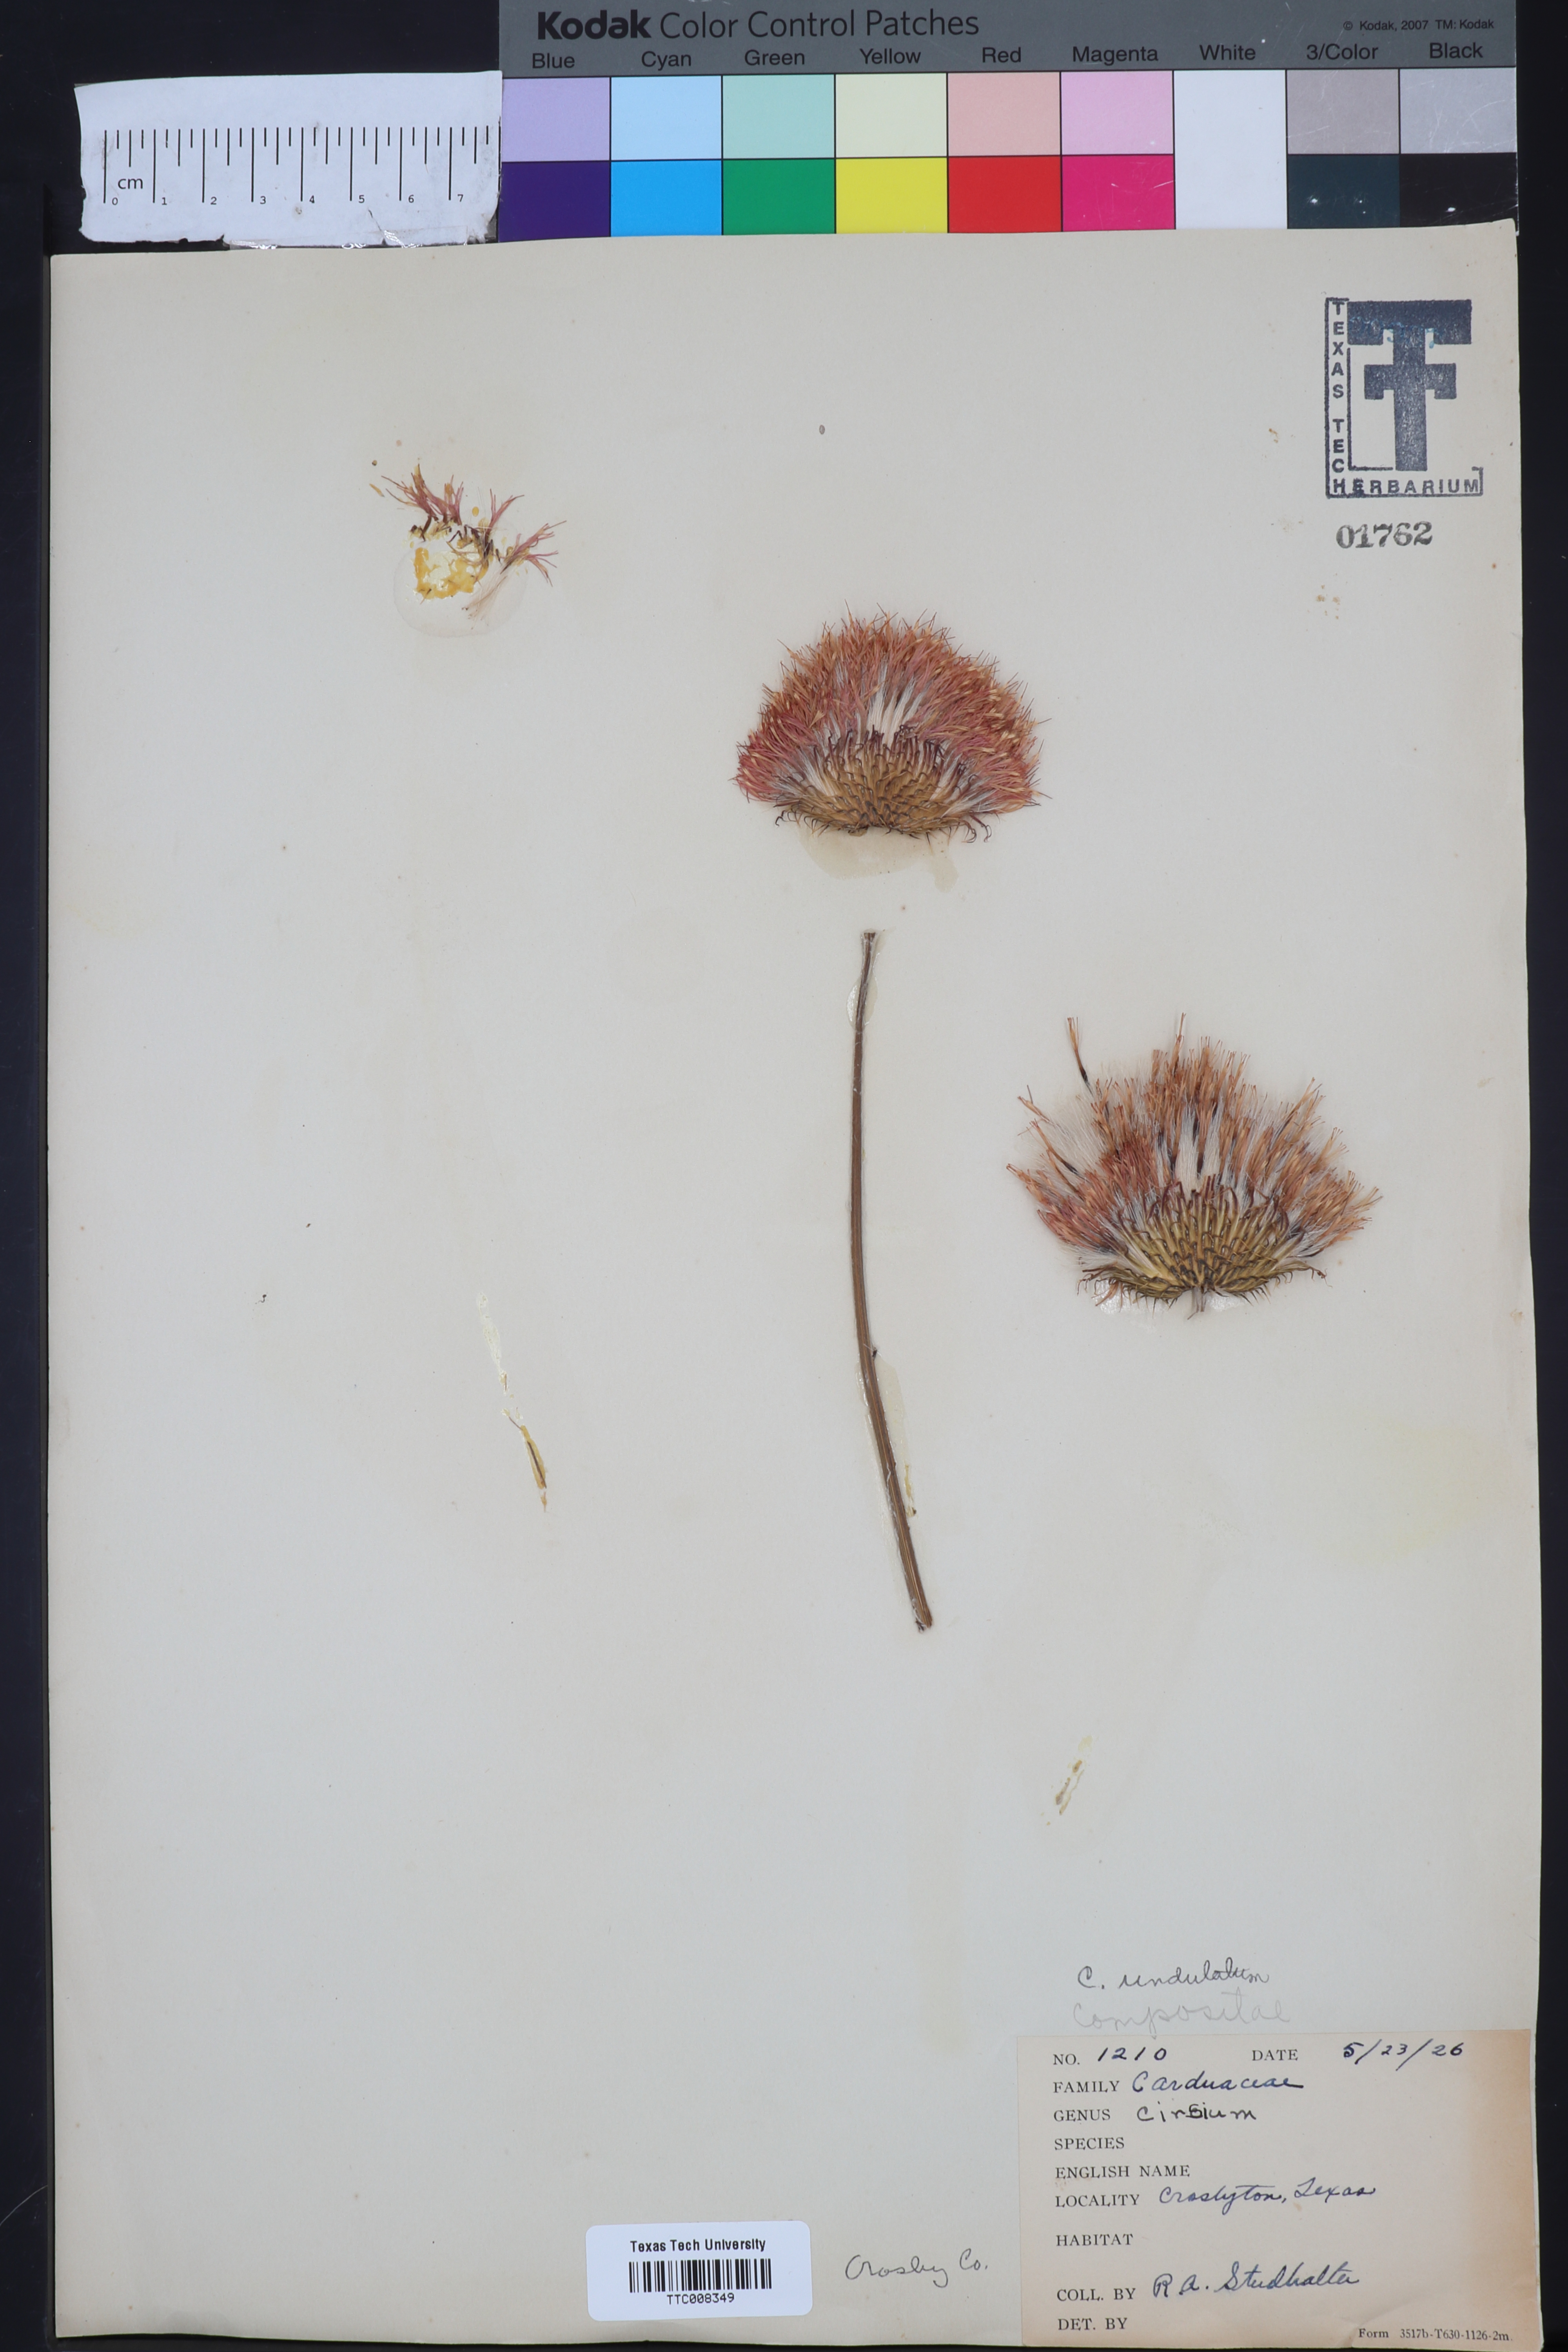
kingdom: Plantae
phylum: Tracheophyta
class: Magnoliopsida
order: Asterales
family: Asteraceae
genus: Cirsium
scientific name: Cirsium undulatum
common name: Pasture thistle
